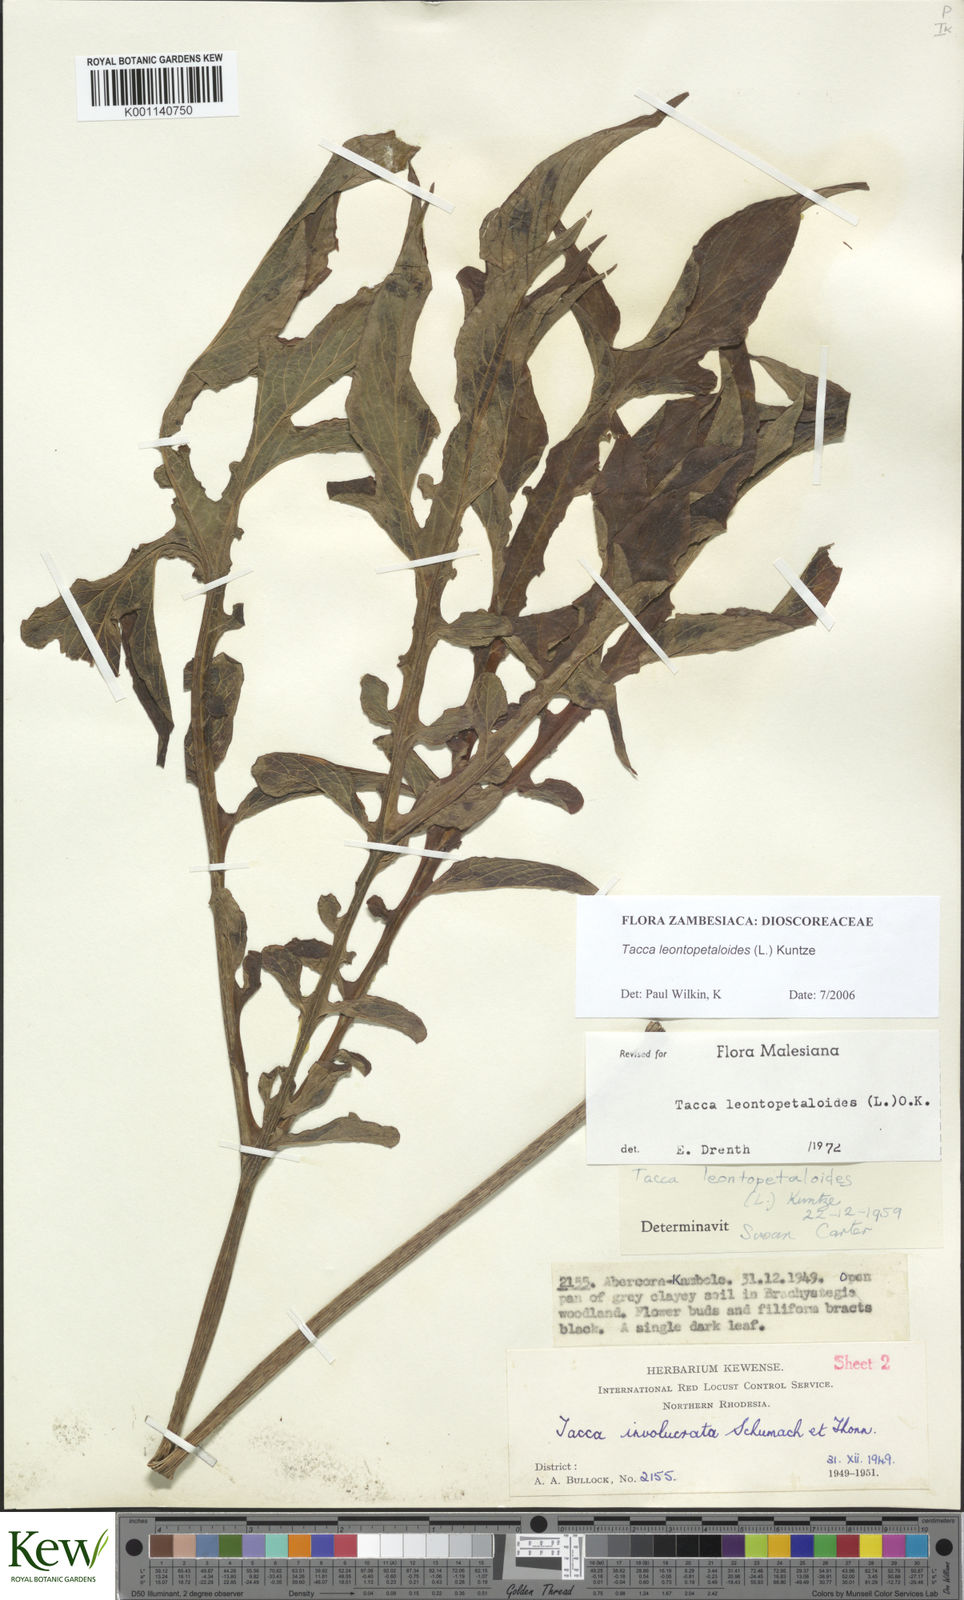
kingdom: Plantae
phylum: Tracheophyta
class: Liliopsida
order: Dioscoreales
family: Dioscoreaceae
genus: Tacca
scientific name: Tacca leontopetaloides
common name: Arrowroot
